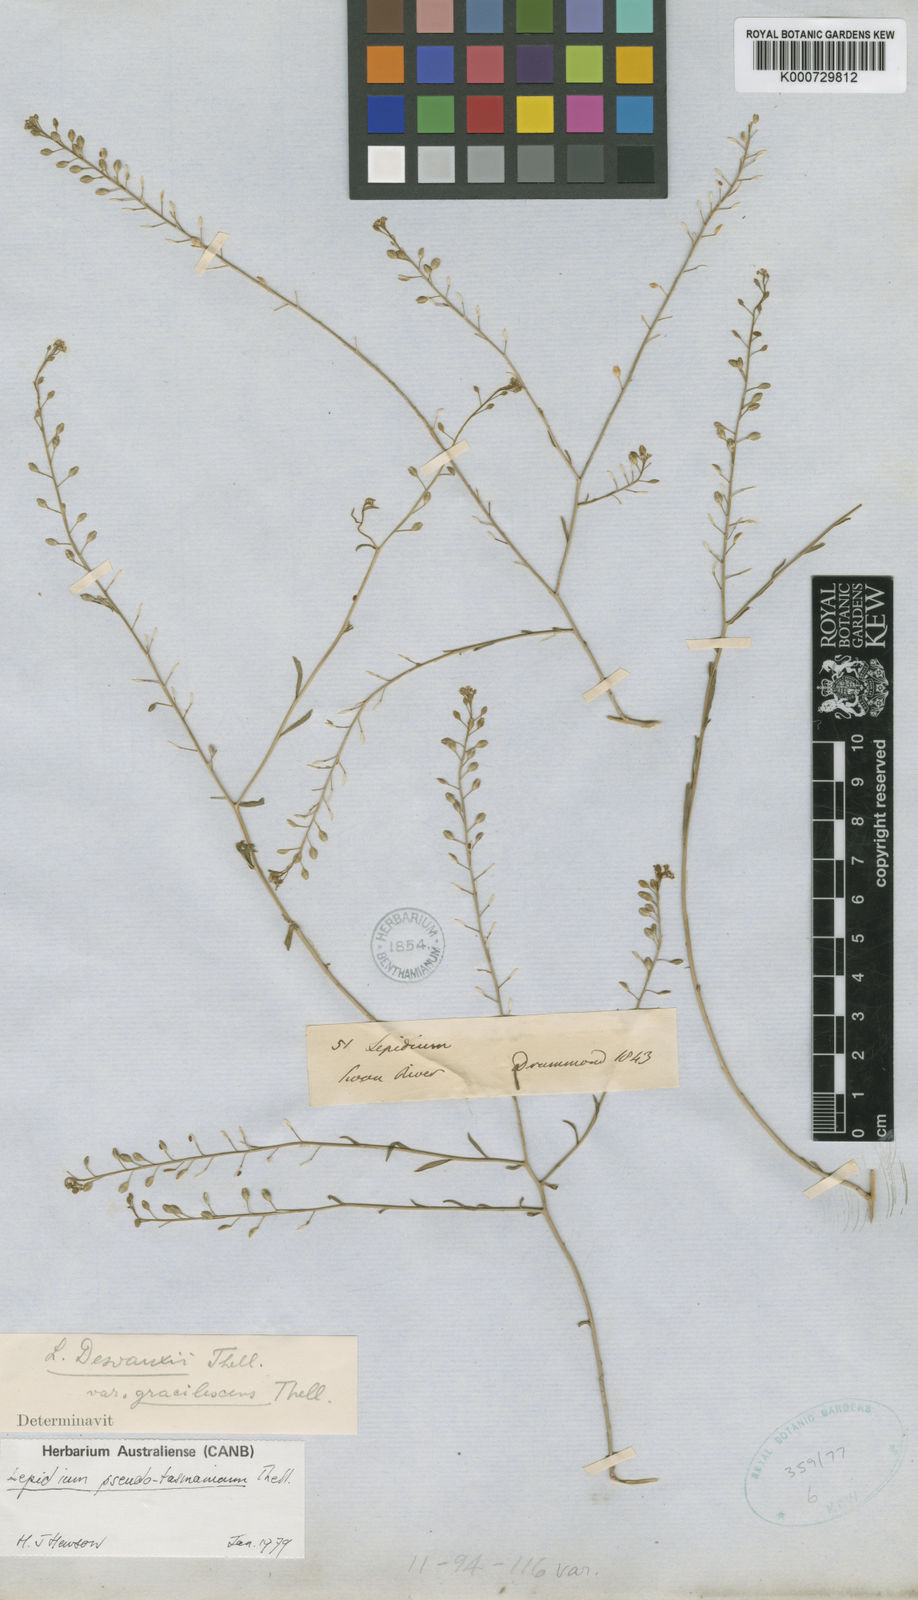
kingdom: Plantae
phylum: Tracheophyta
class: Magnoliopsida
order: Brassicales
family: Brassicaceae
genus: Lepidium
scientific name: Lepidium desvauxii
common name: Bushy pepperwort
